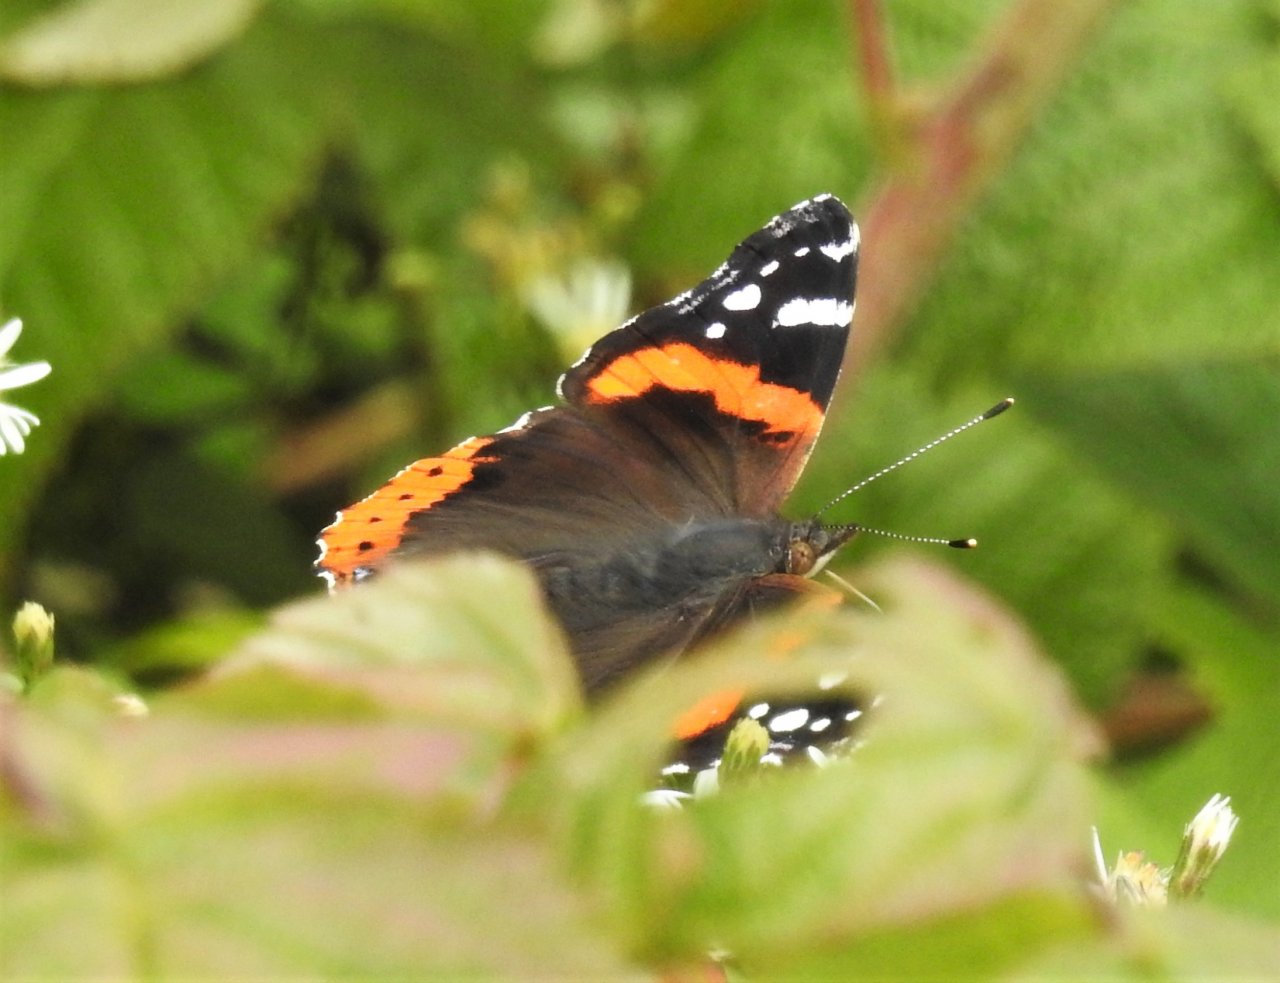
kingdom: Animalia
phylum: Arthropoda
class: Insecta
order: Lepidoptera
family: Nymphalidae
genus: Vanessa
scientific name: Vanessa atalanta
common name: Red Admiral
